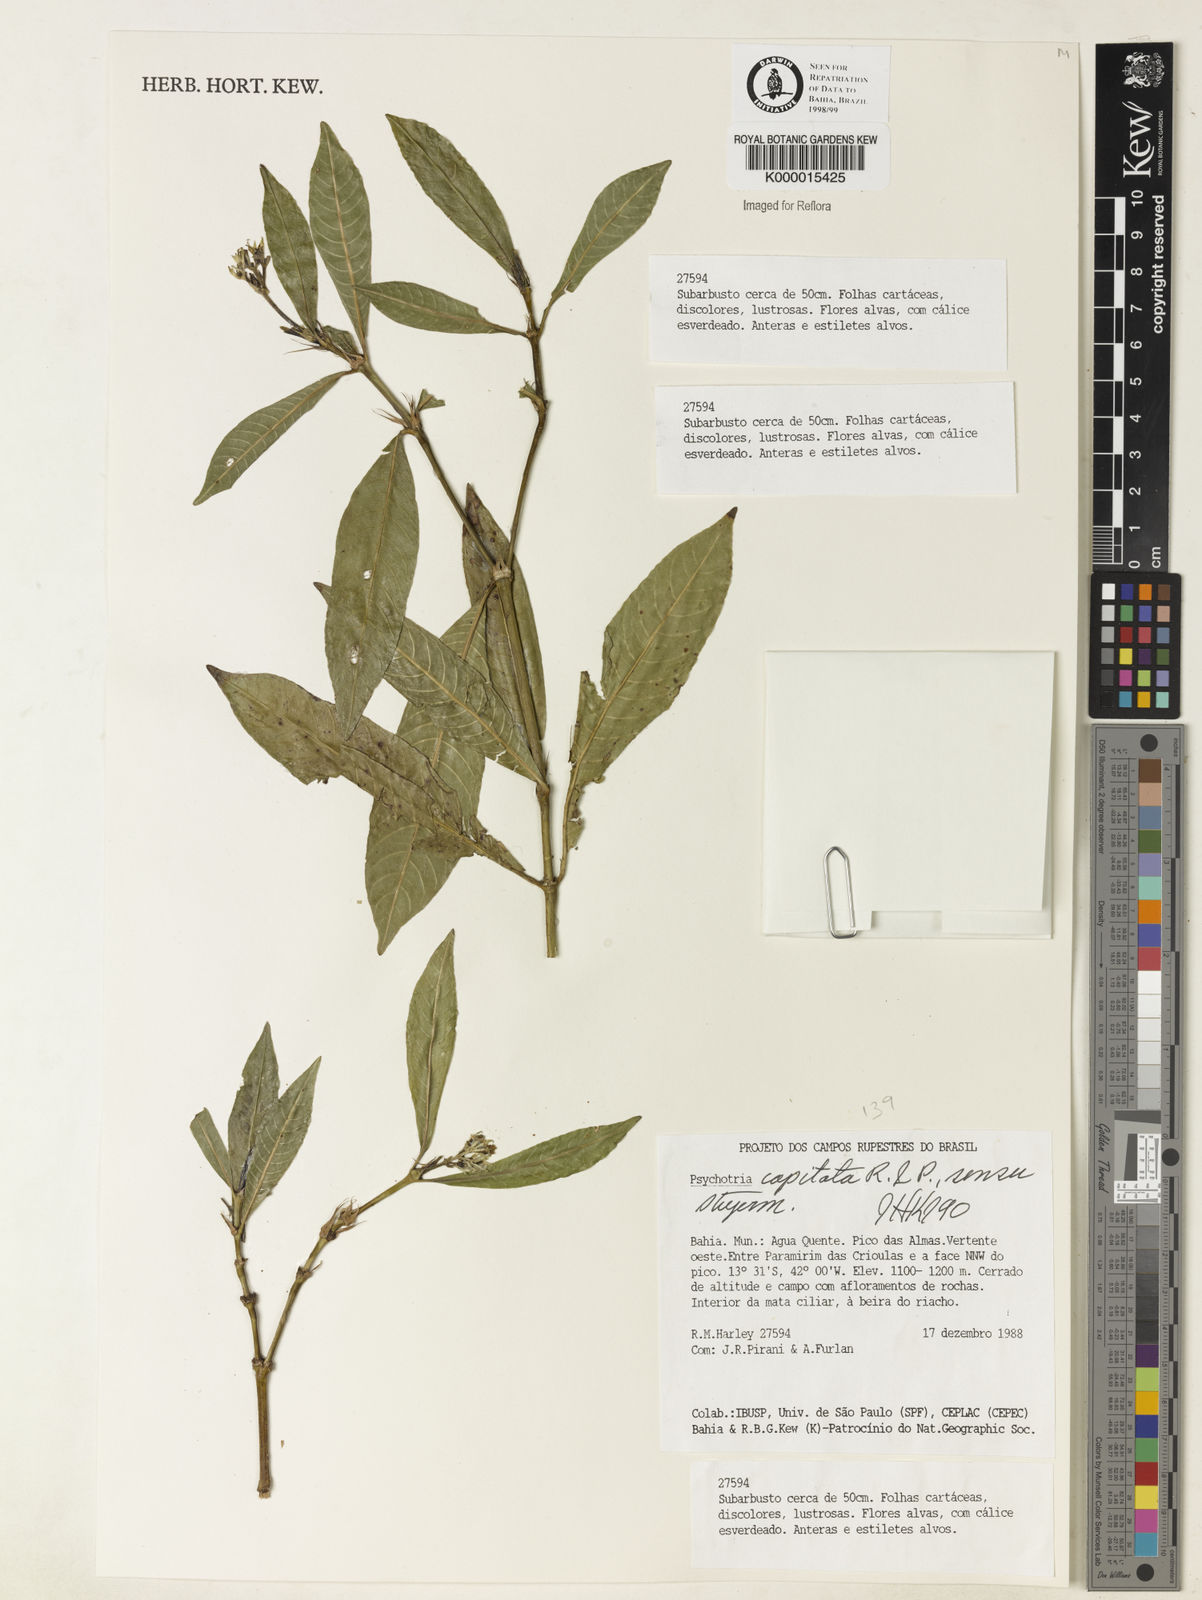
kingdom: Plantae
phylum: Tracheophyta
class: Magnoliopsida
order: Gentianales
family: Rubiaceae
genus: Psychotria
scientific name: Psychotria
